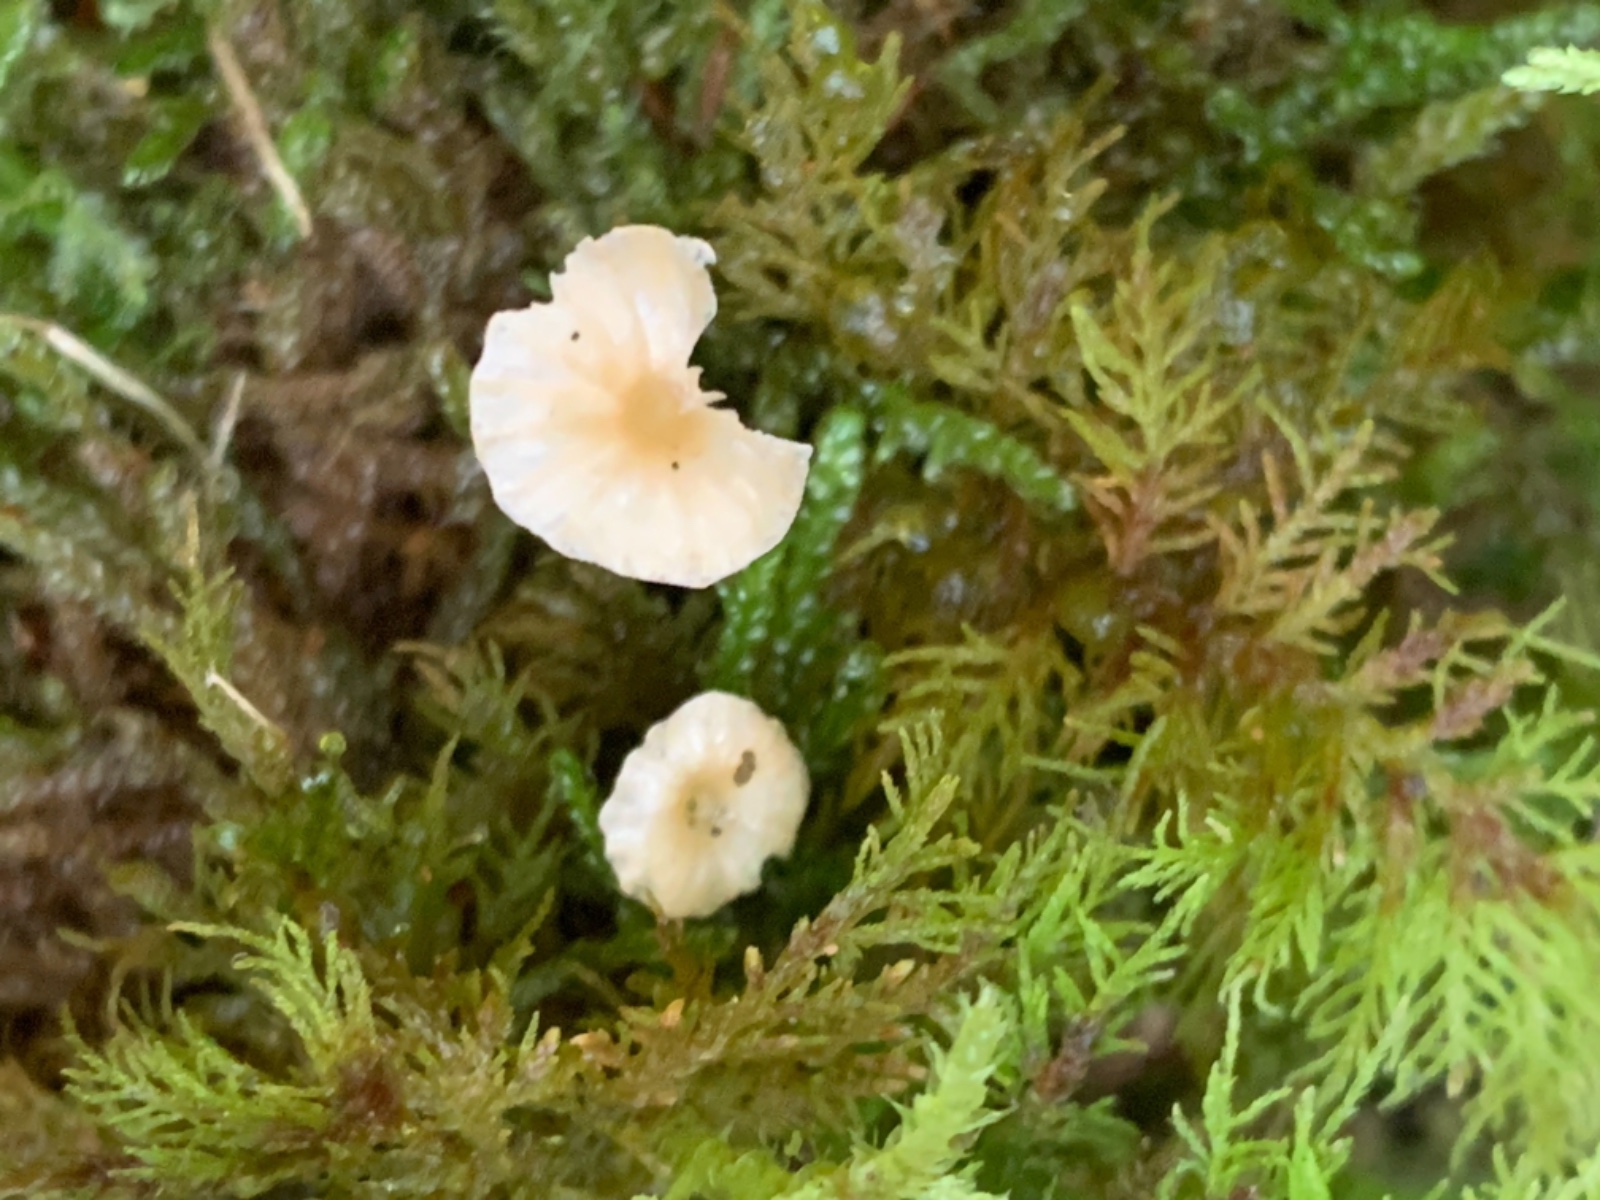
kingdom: Fungi
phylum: Basidiomycota
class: Agaricomycetes
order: Hymenochaetales
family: Rickenellaceae
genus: Rickenella
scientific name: Rickenella fibula
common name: orange mosnavlehat
